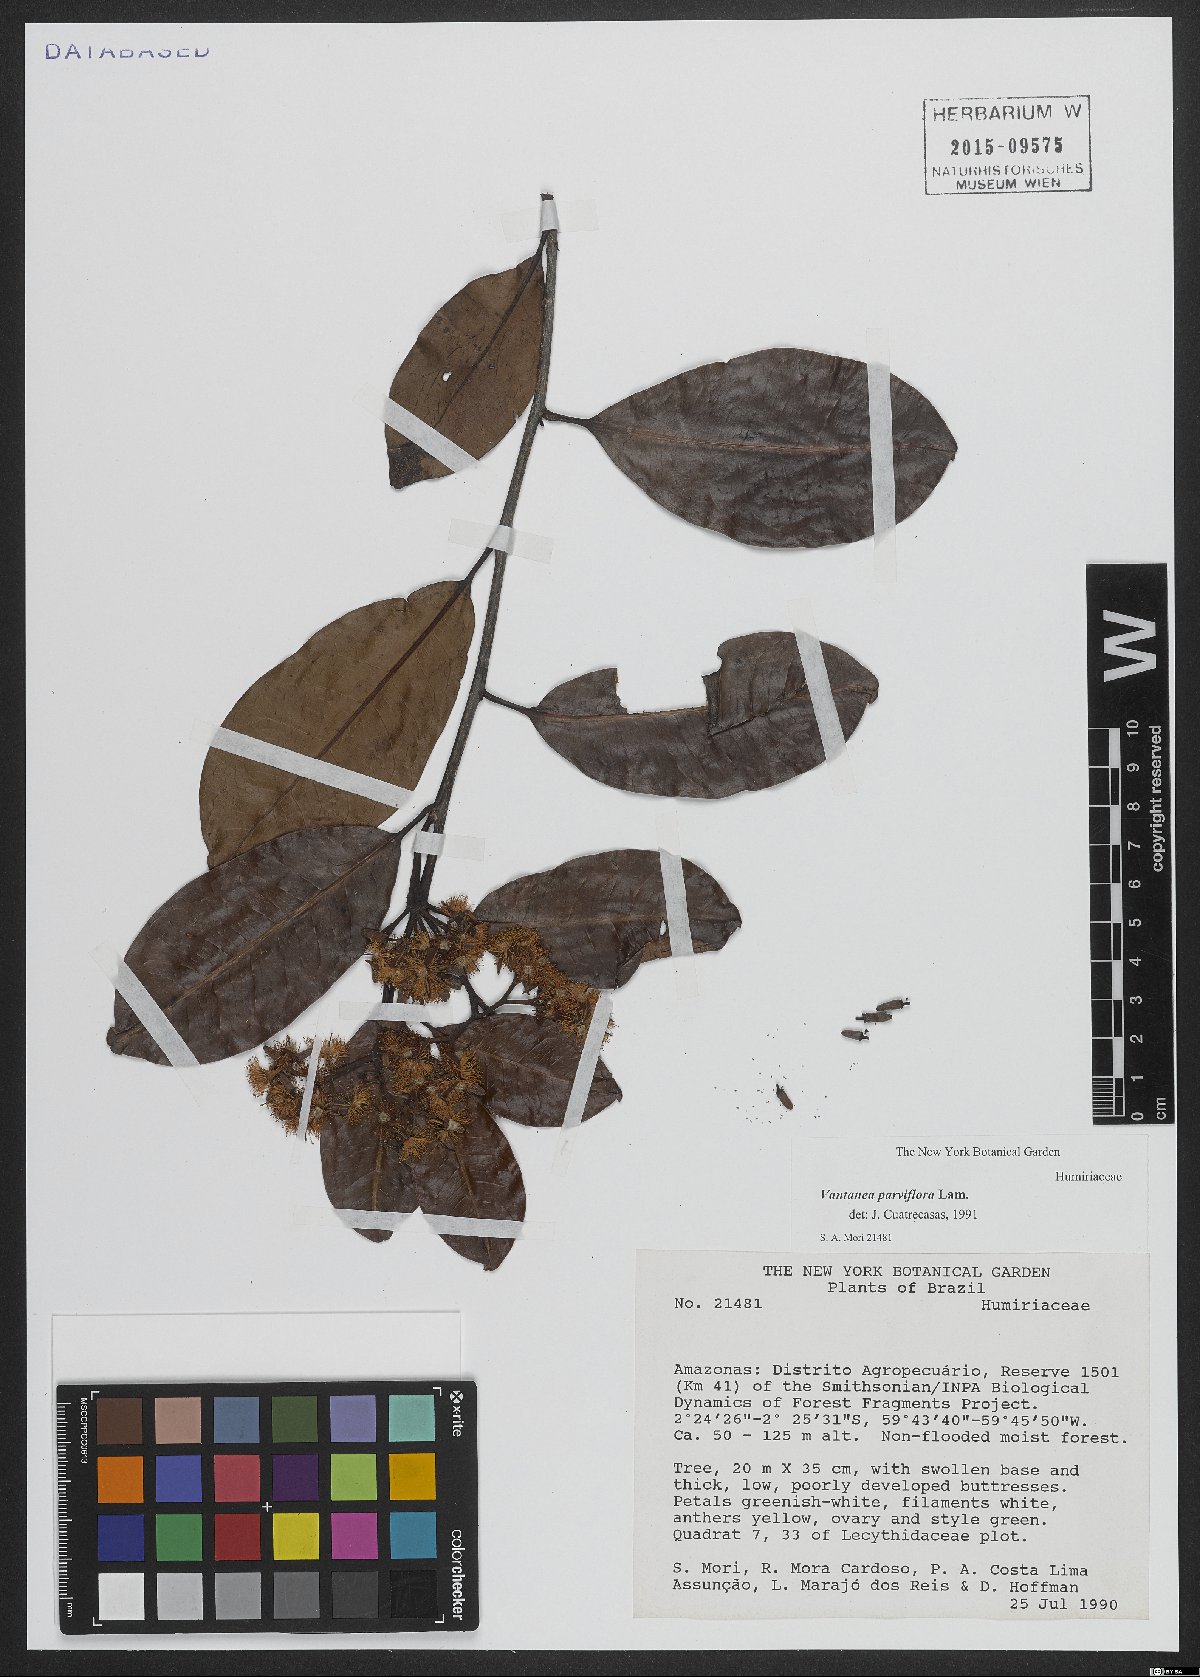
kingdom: Plantae
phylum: Tracheophyta
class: Magnoliopsida
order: Malpighiales
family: Humiriaceae
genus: Vantanea
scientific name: Vantanea parviflora
